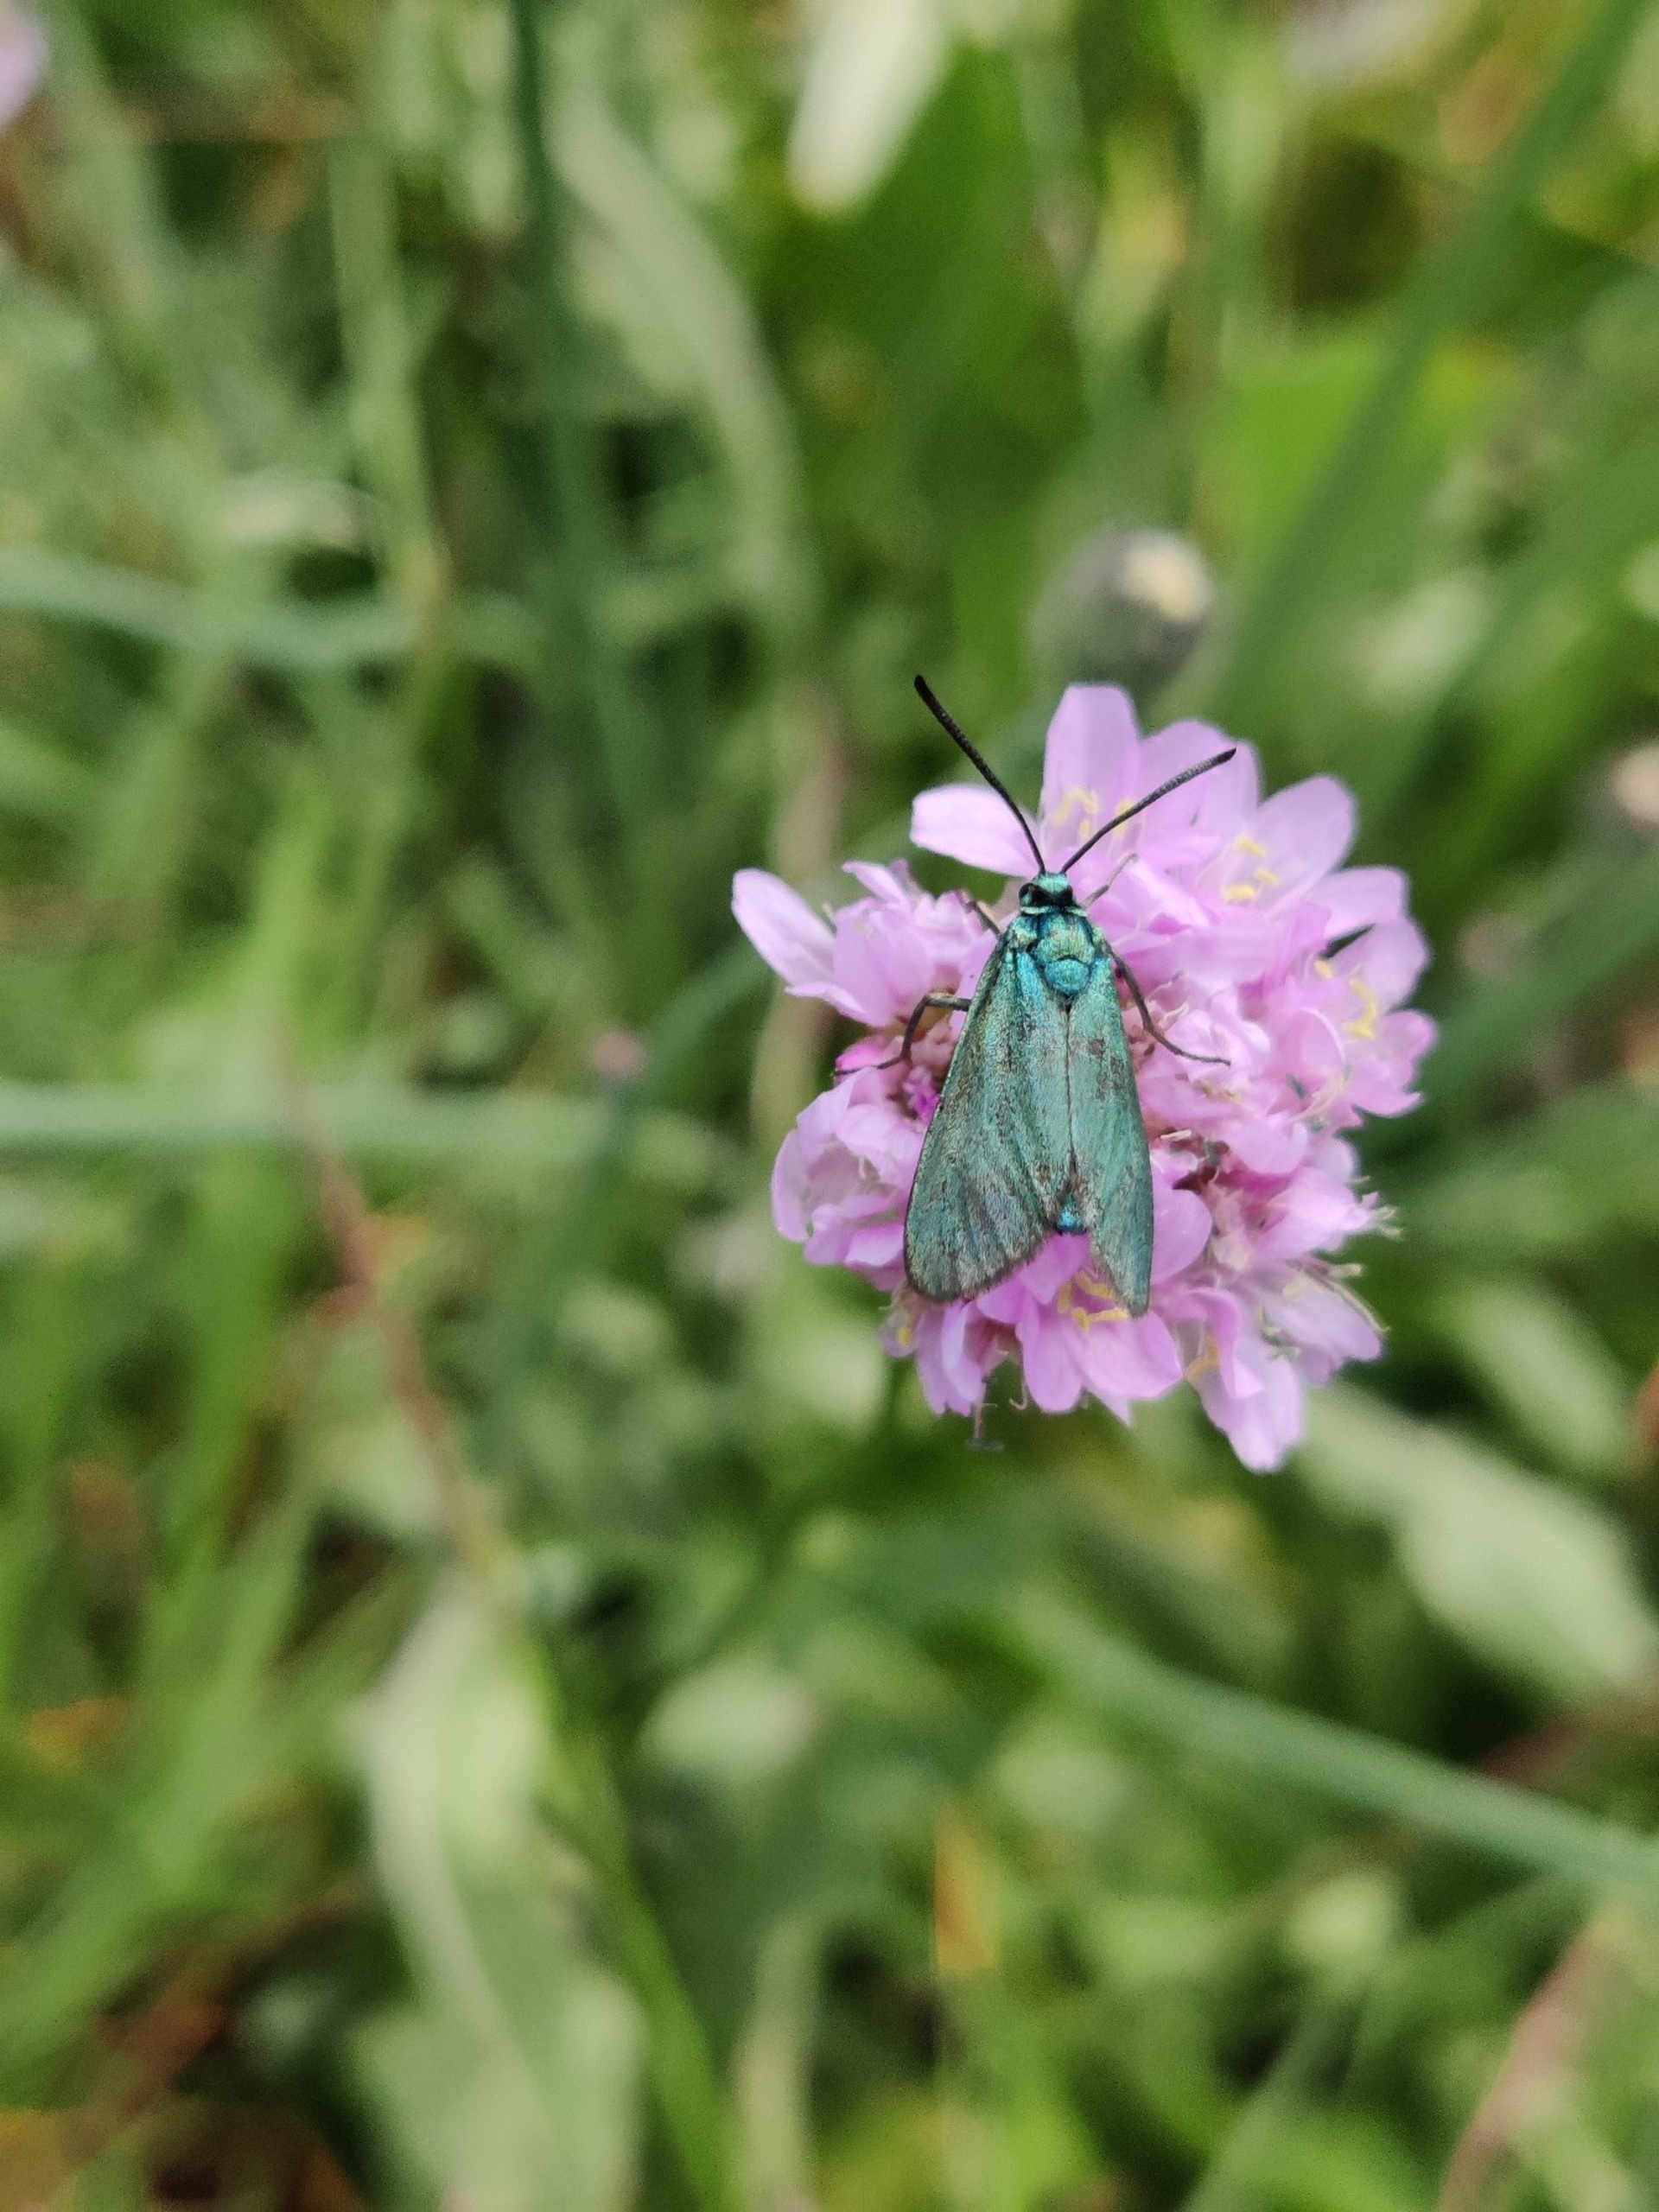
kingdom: Animalia
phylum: Arthropoda
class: Insecta
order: Lepidoptera
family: Zygaenidae
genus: Adscita
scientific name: Adscita statices
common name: Metalvinge
